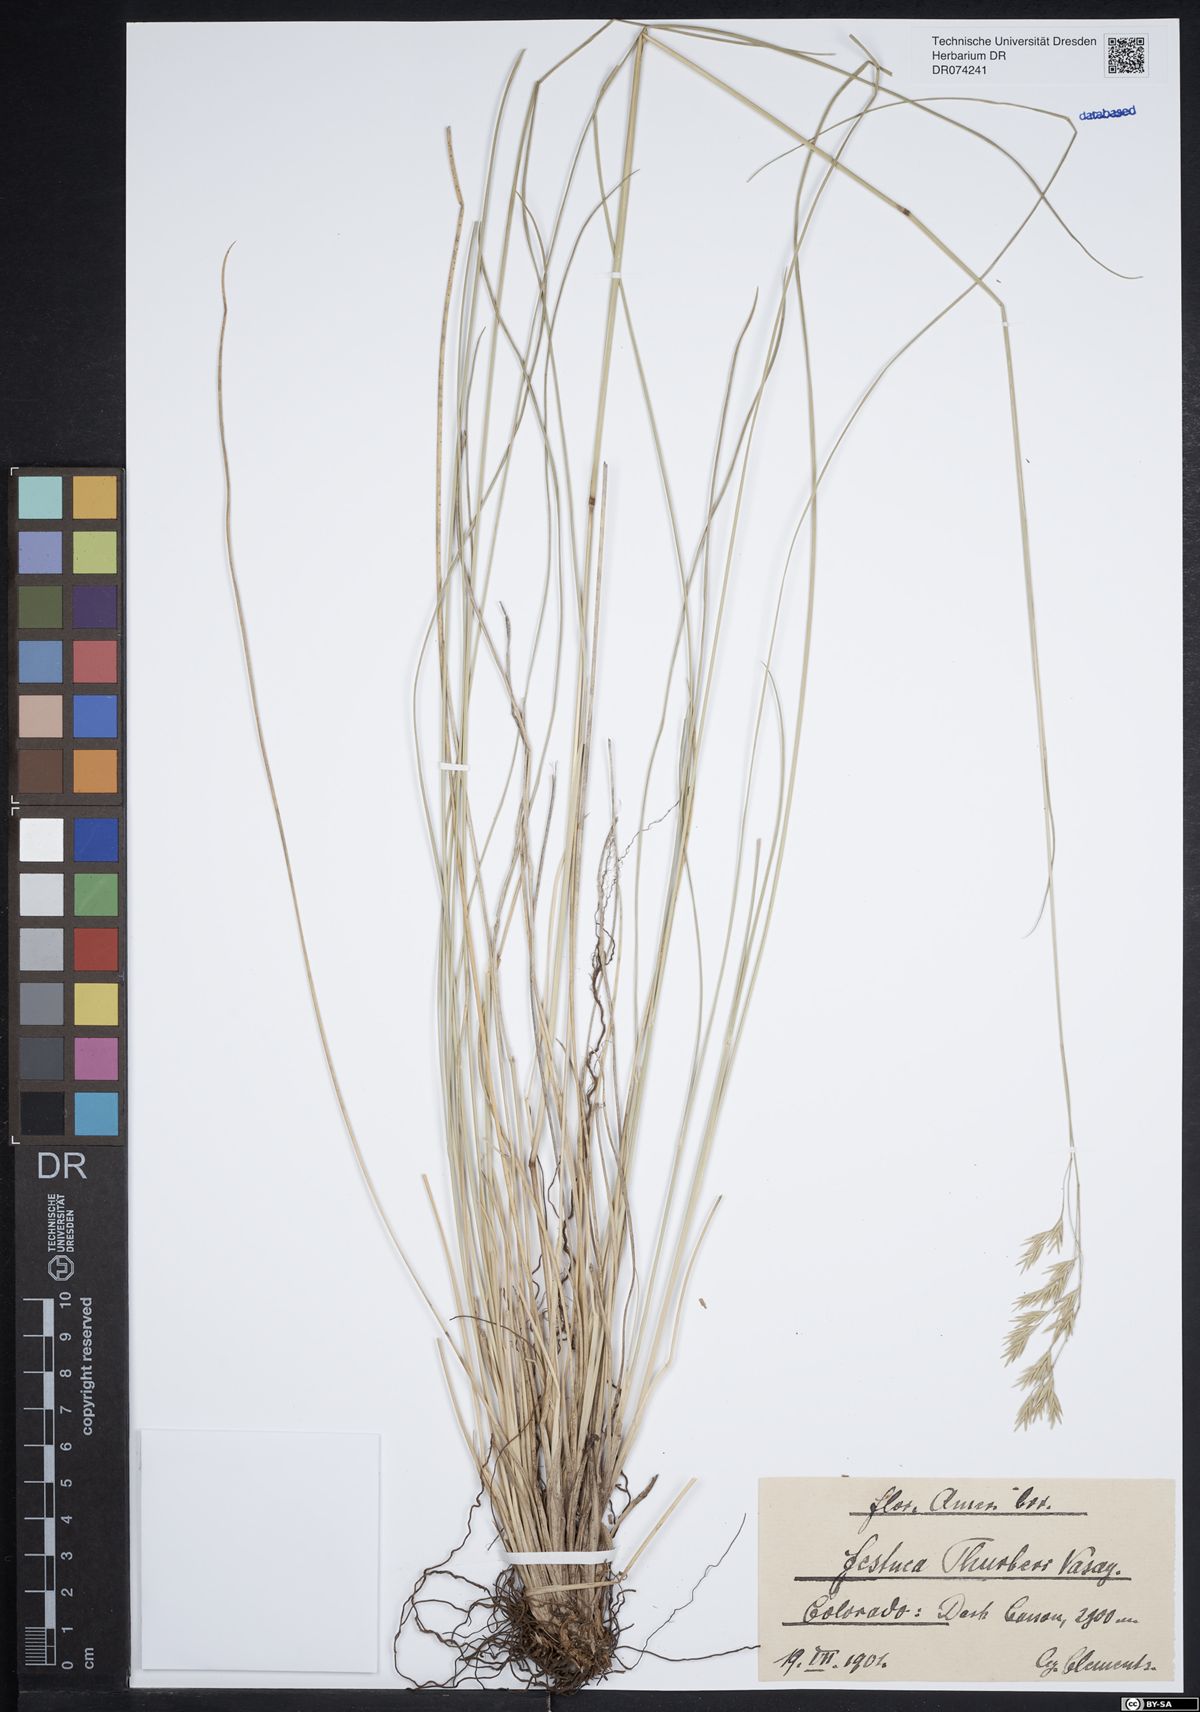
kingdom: Plantae
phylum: Tracheophyta
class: Liliopsida
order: Poales
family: Poaceae
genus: Festuca
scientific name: Festuca thurberi
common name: Thurber's fescue
